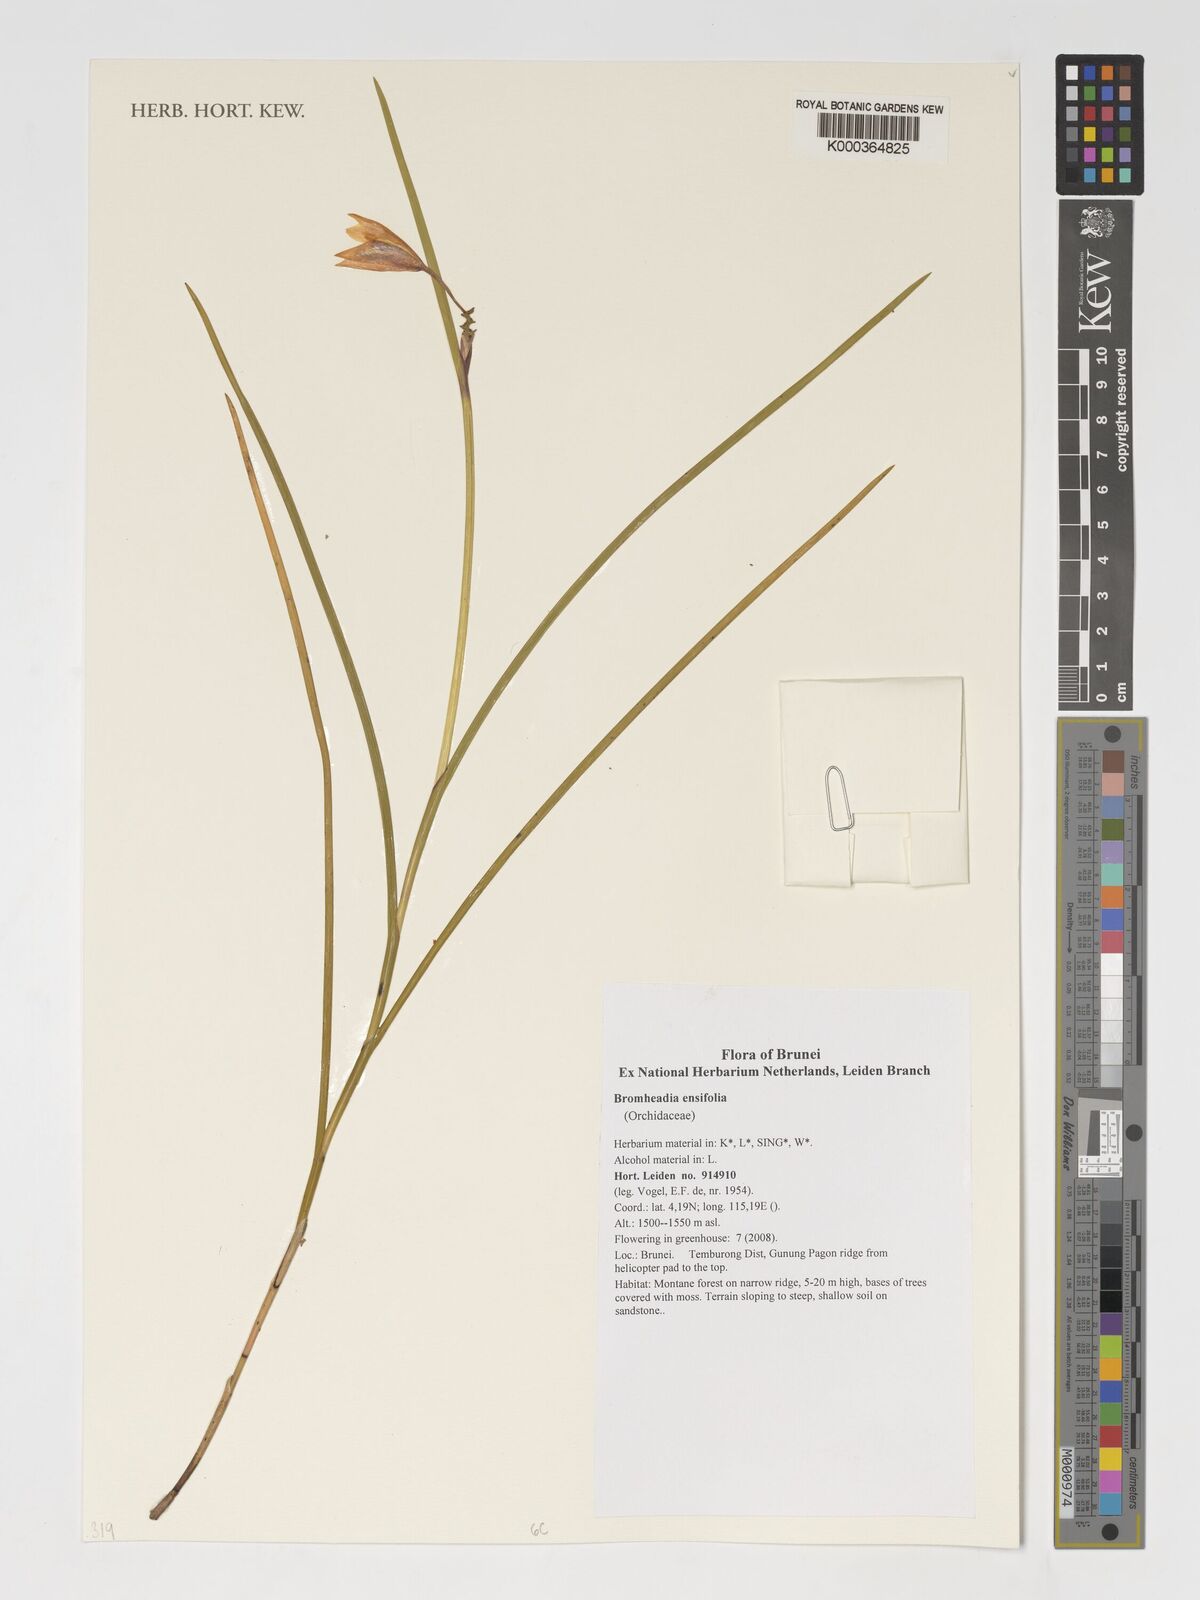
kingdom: Plantae
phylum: Tracheophyta
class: Liliopsida
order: Asparagales
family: Orchidaceae
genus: Bromheadia
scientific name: Bromheadia ensifolia
